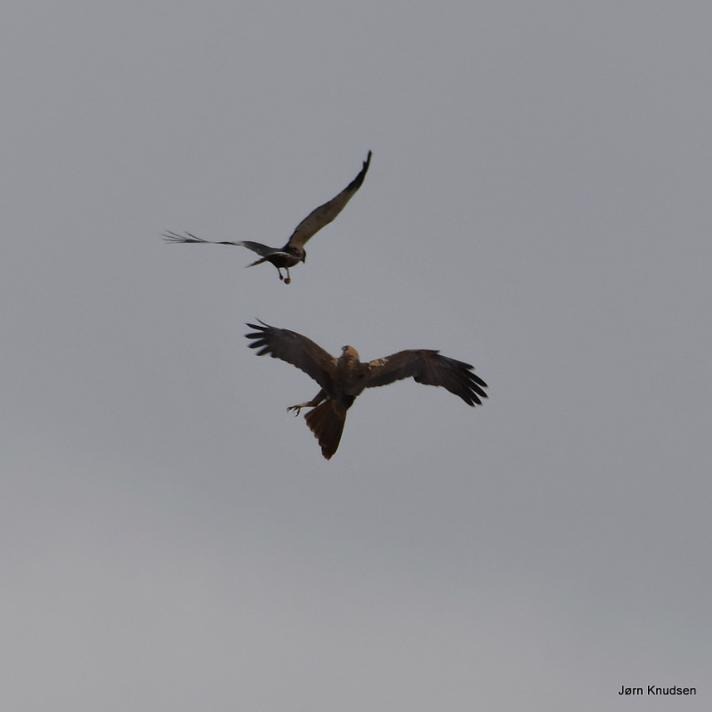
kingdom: Animalia
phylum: Chordata
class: Aves
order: Accipitriformes
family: Accipitridae
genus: Circus
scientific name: Circus aeruginosus
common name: Rørhøg
